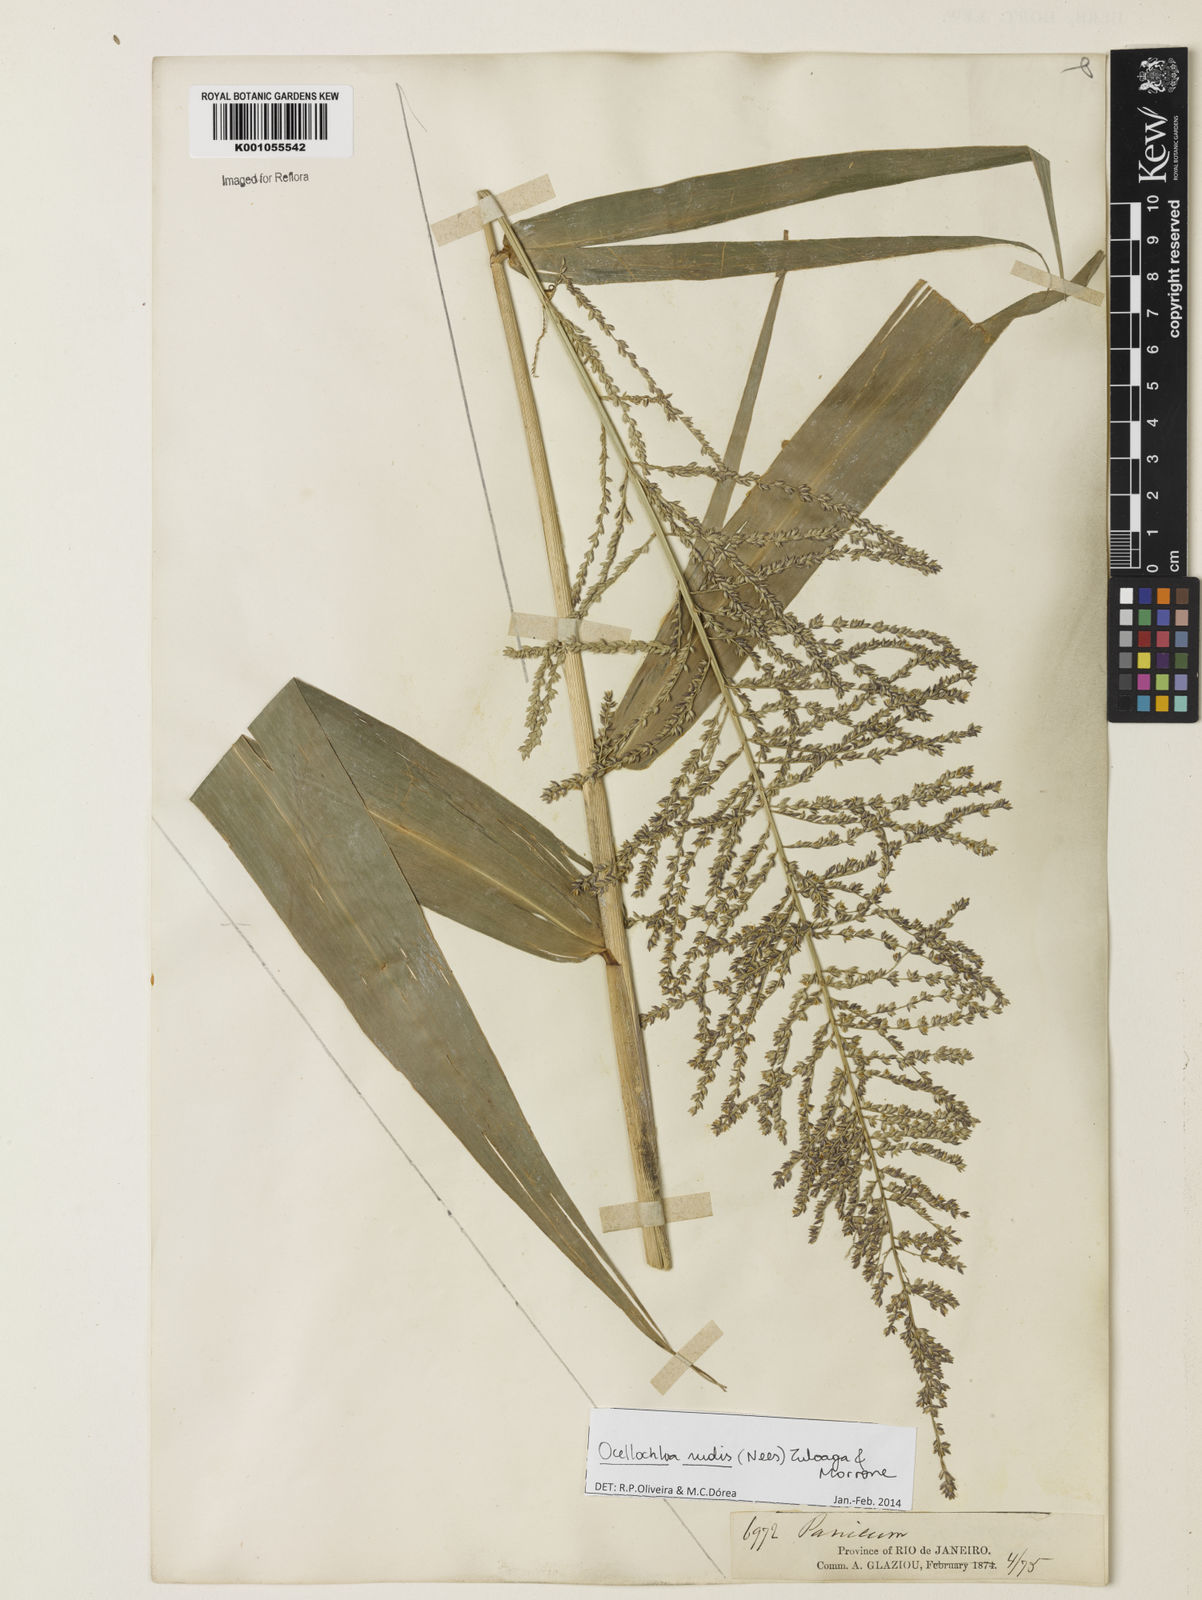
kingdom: Plantae
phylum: Tracheophyta
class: Liliopsida
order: Poales
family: Poaceae
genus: Ocellochloa
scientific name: Ocellochloa rudis
